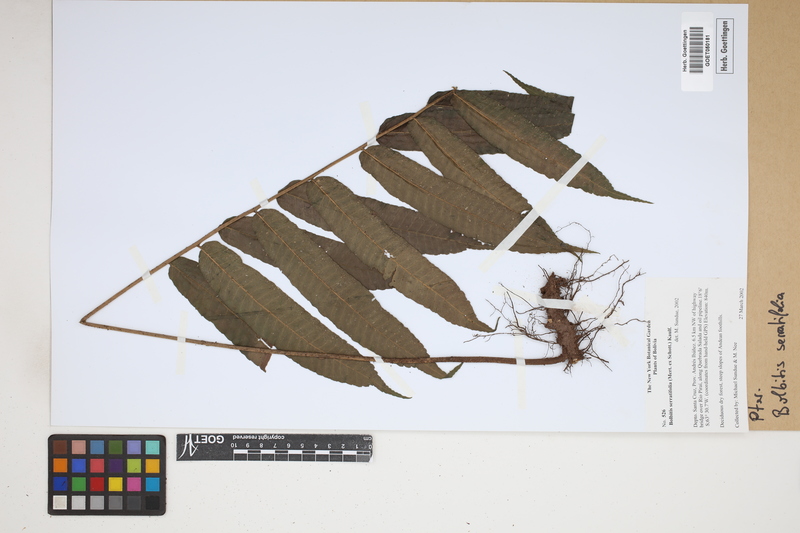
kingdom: Plantae
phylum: Tracheophyta
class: Polypodiopsida
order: Polypodiales
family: Dryopteridaceae
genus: Bolbitis
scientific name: Bolbitis serratifolia
